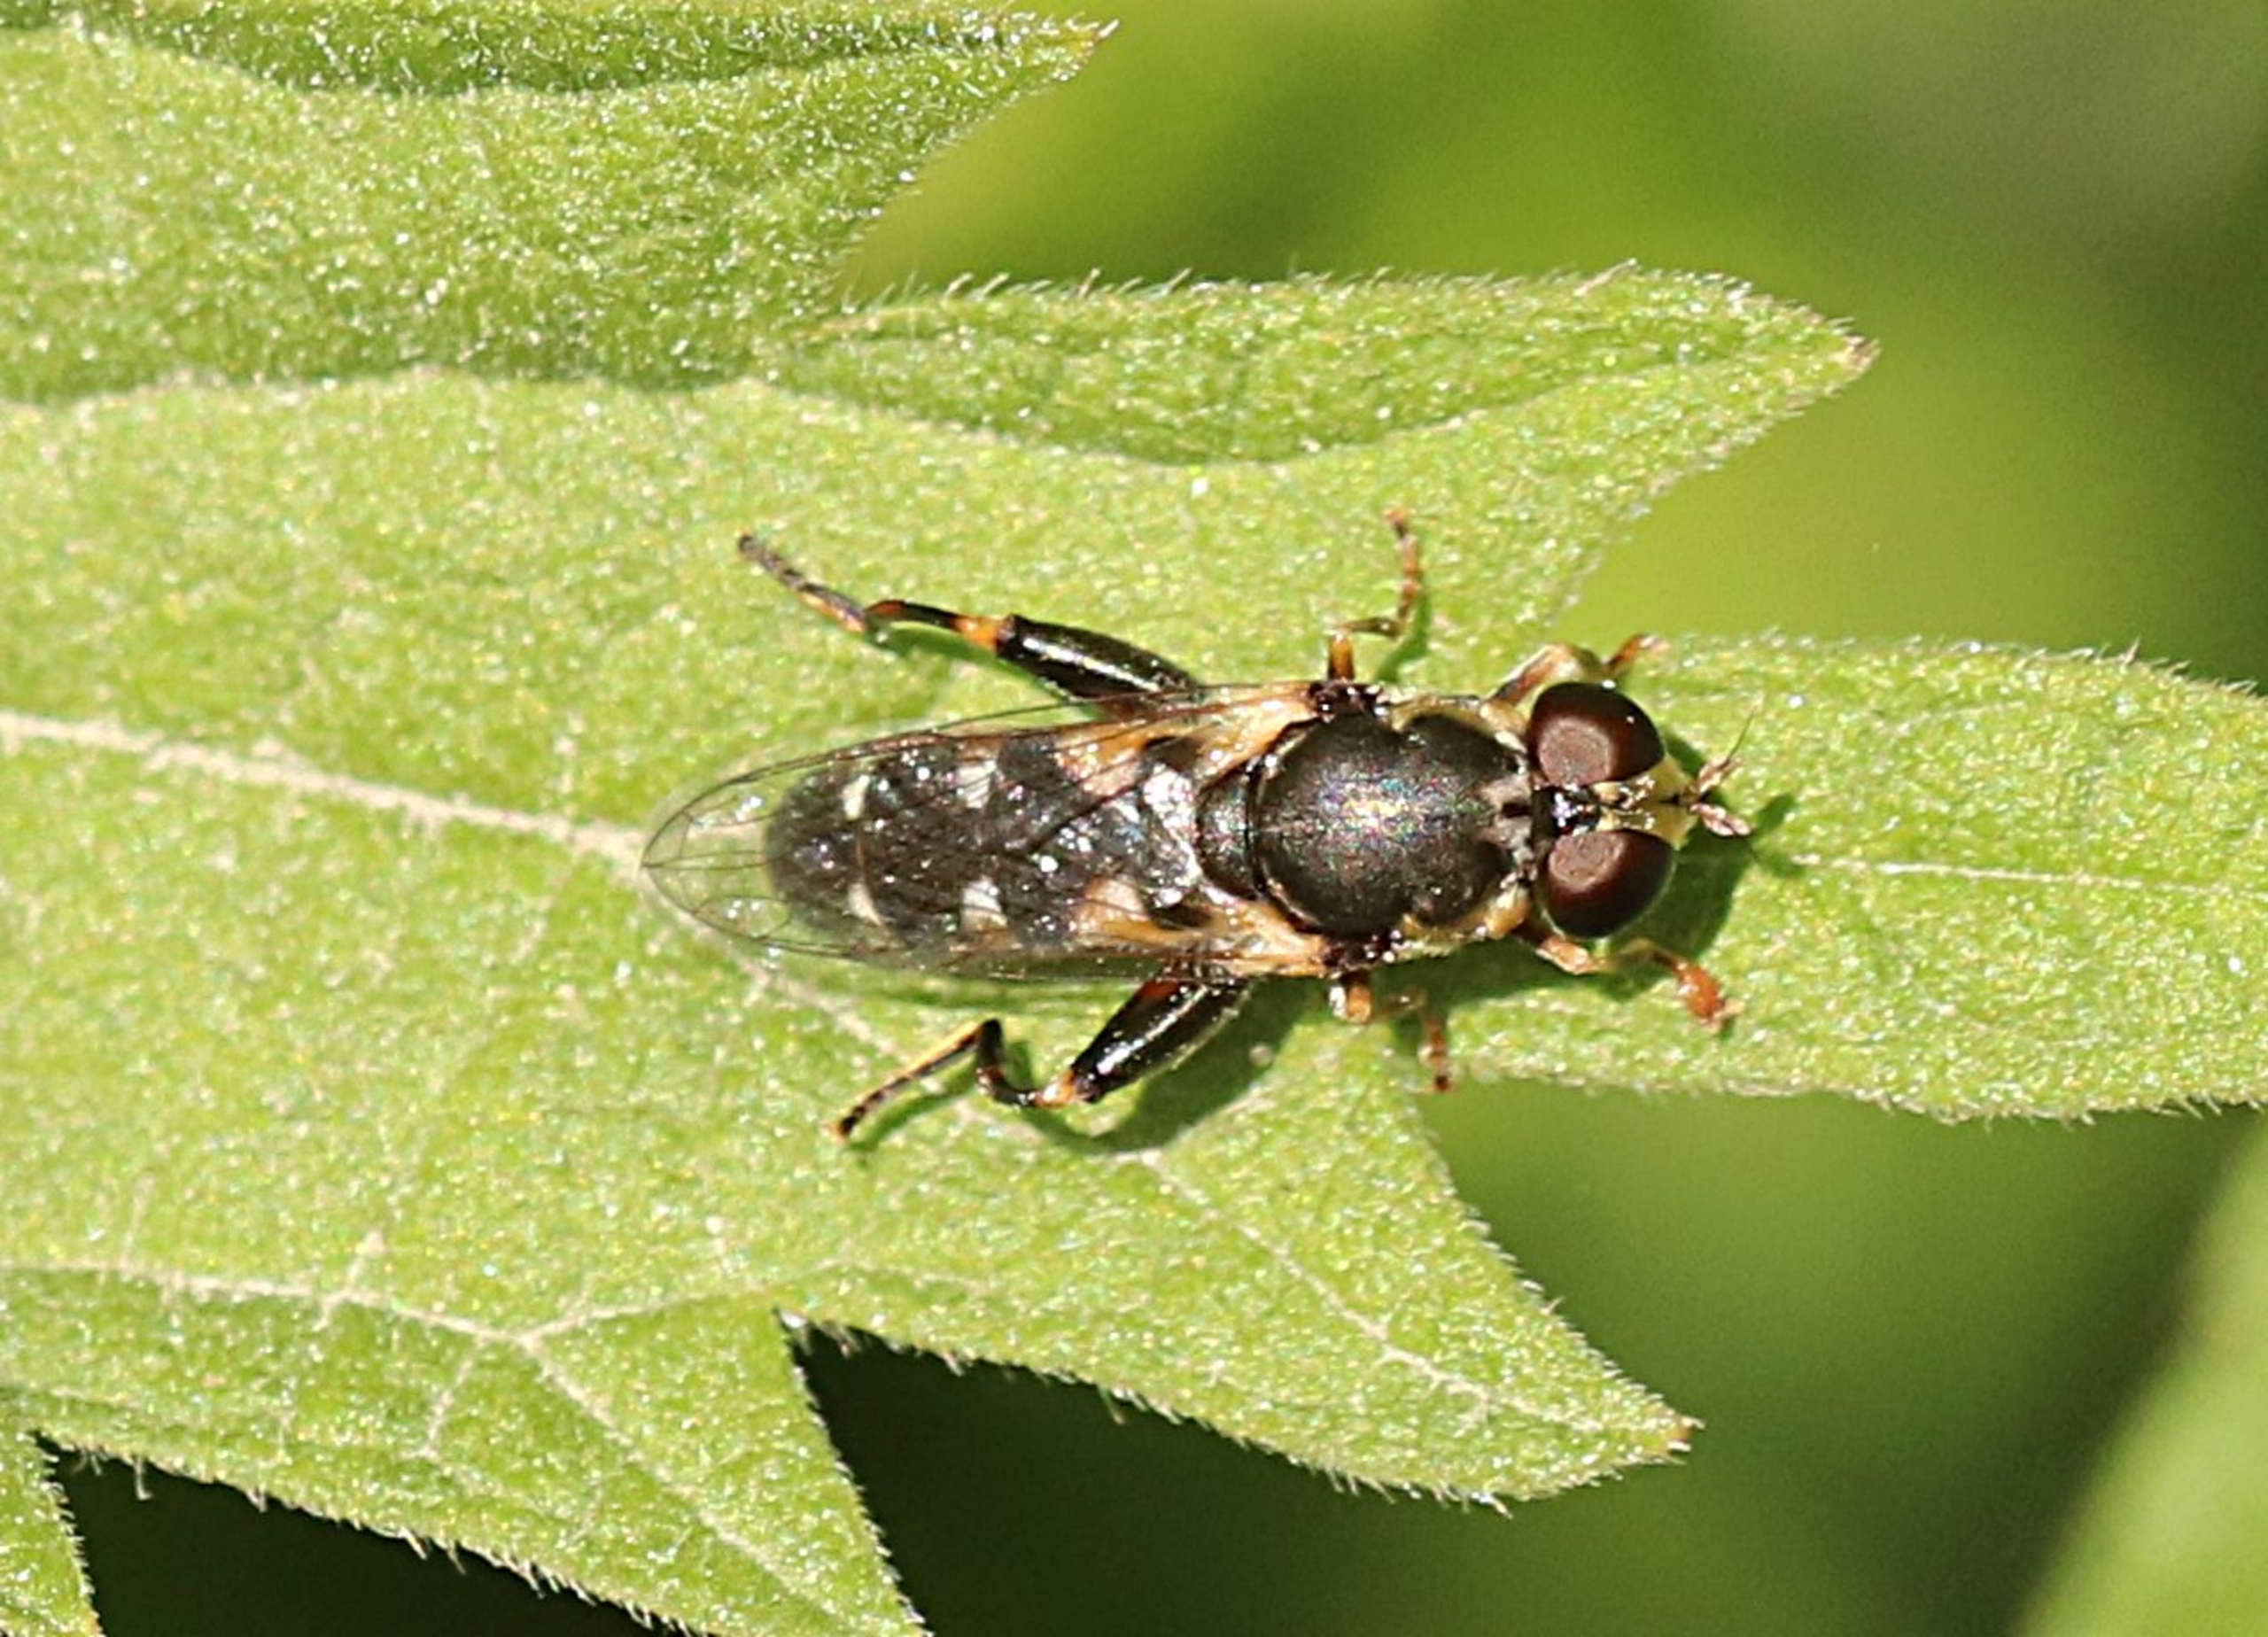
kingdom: Animalia
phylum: Arthropoda
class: Insecta
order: Diptera
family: Syrphidae
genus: Syritta
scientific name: Syritta pipiens
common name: Kompost-svirreflue
